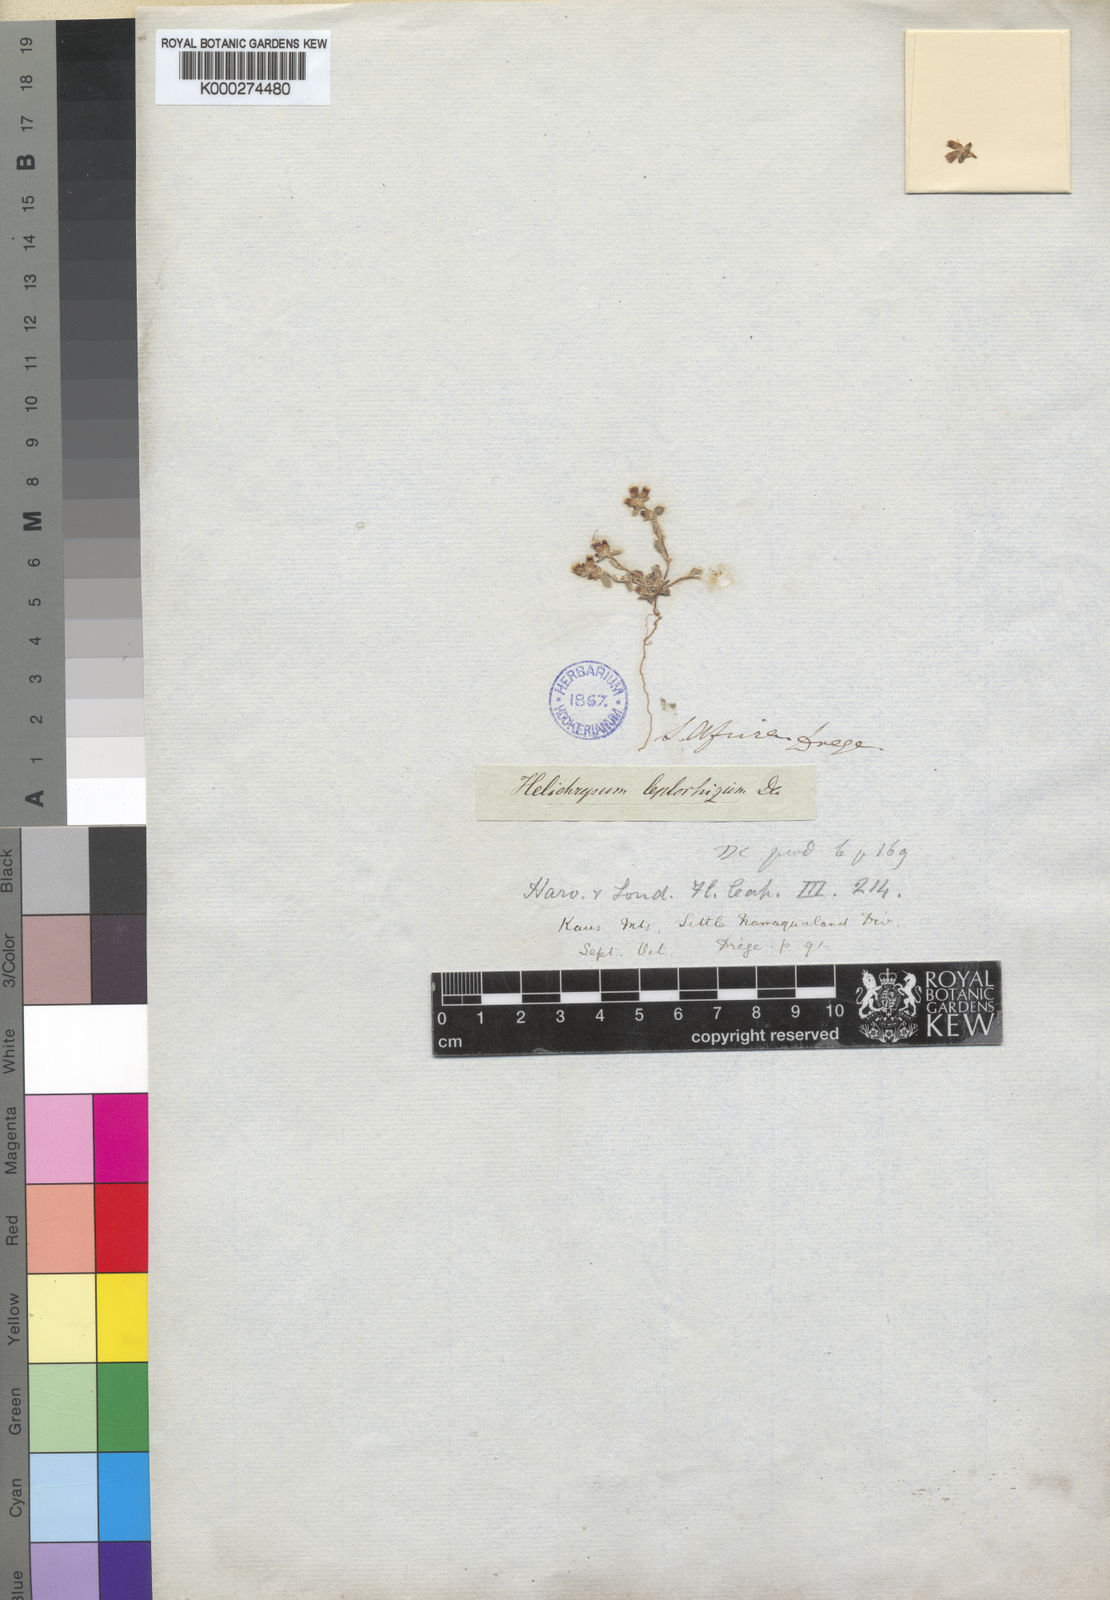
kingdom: Plantae
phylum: Tracheophyta
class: Magnoliopsida
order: Asterales
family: Asteraceae
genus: Helichrysum
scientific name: Helichrysum leptorhizum
